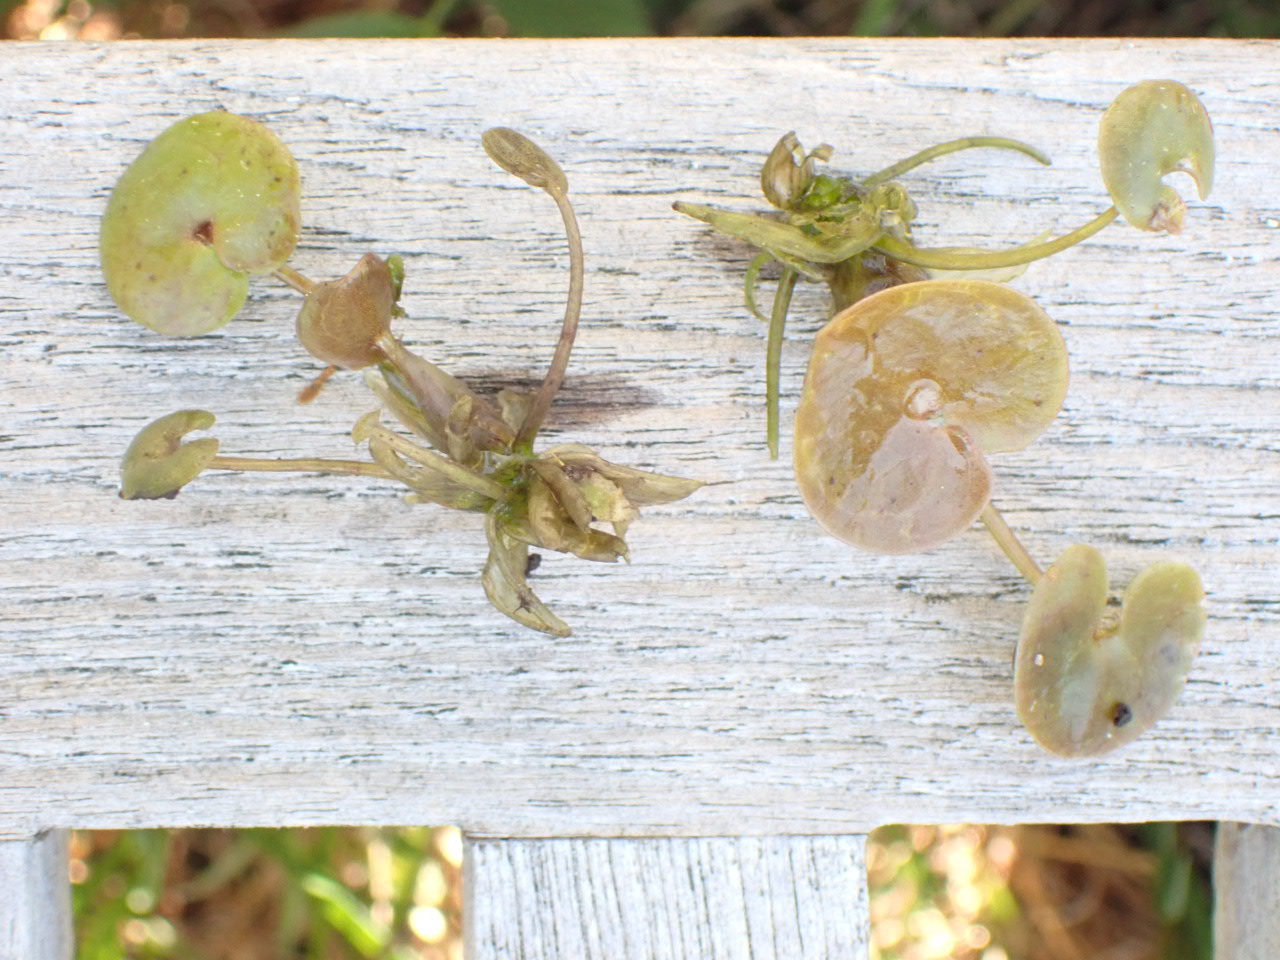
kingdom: Plantae
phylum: Tracheophyta
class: Liliopsida
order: Alismatales
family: Hydrocharitaceae
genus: Hydrocharis
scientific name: Hydrocharis morsus-ranae
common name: Frøbid
